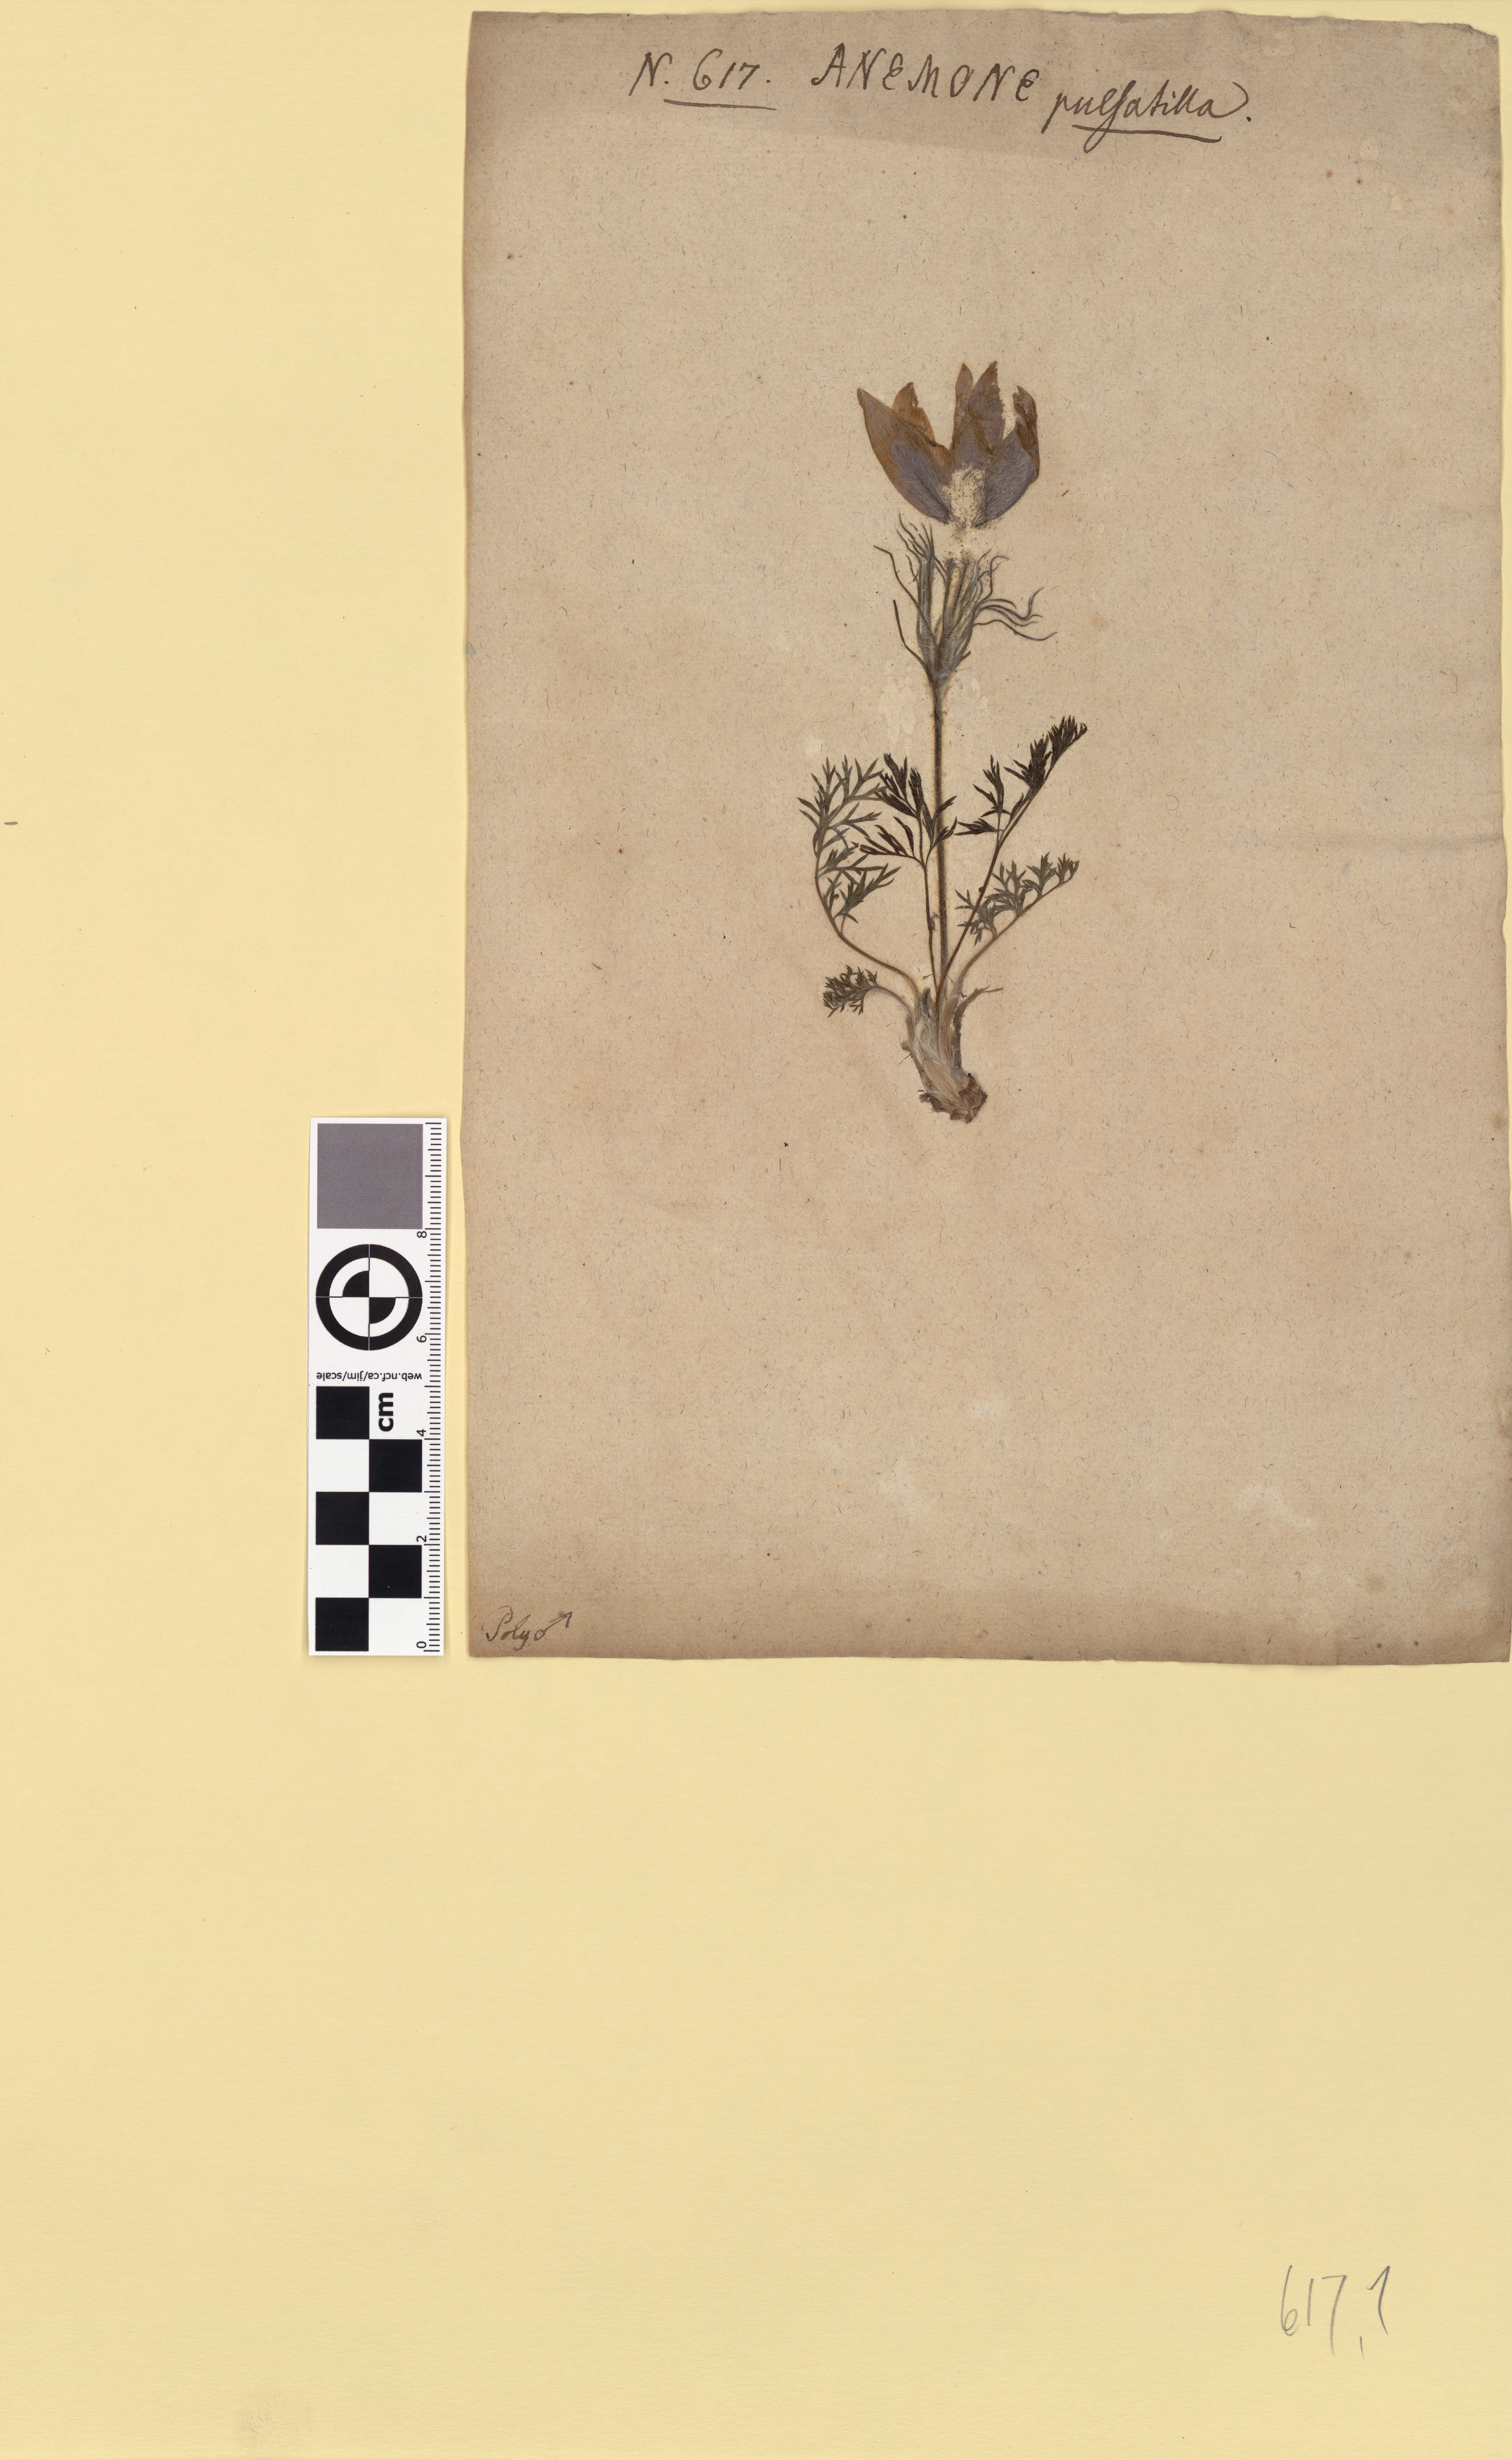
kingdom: Plantae
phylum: Tracheophyta
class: Magnoliopsida
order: Ranunculales
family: Ranunculaceae
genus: Pulsatilla
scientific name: Pulsatilla vulgaris
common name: Pasqueflower
